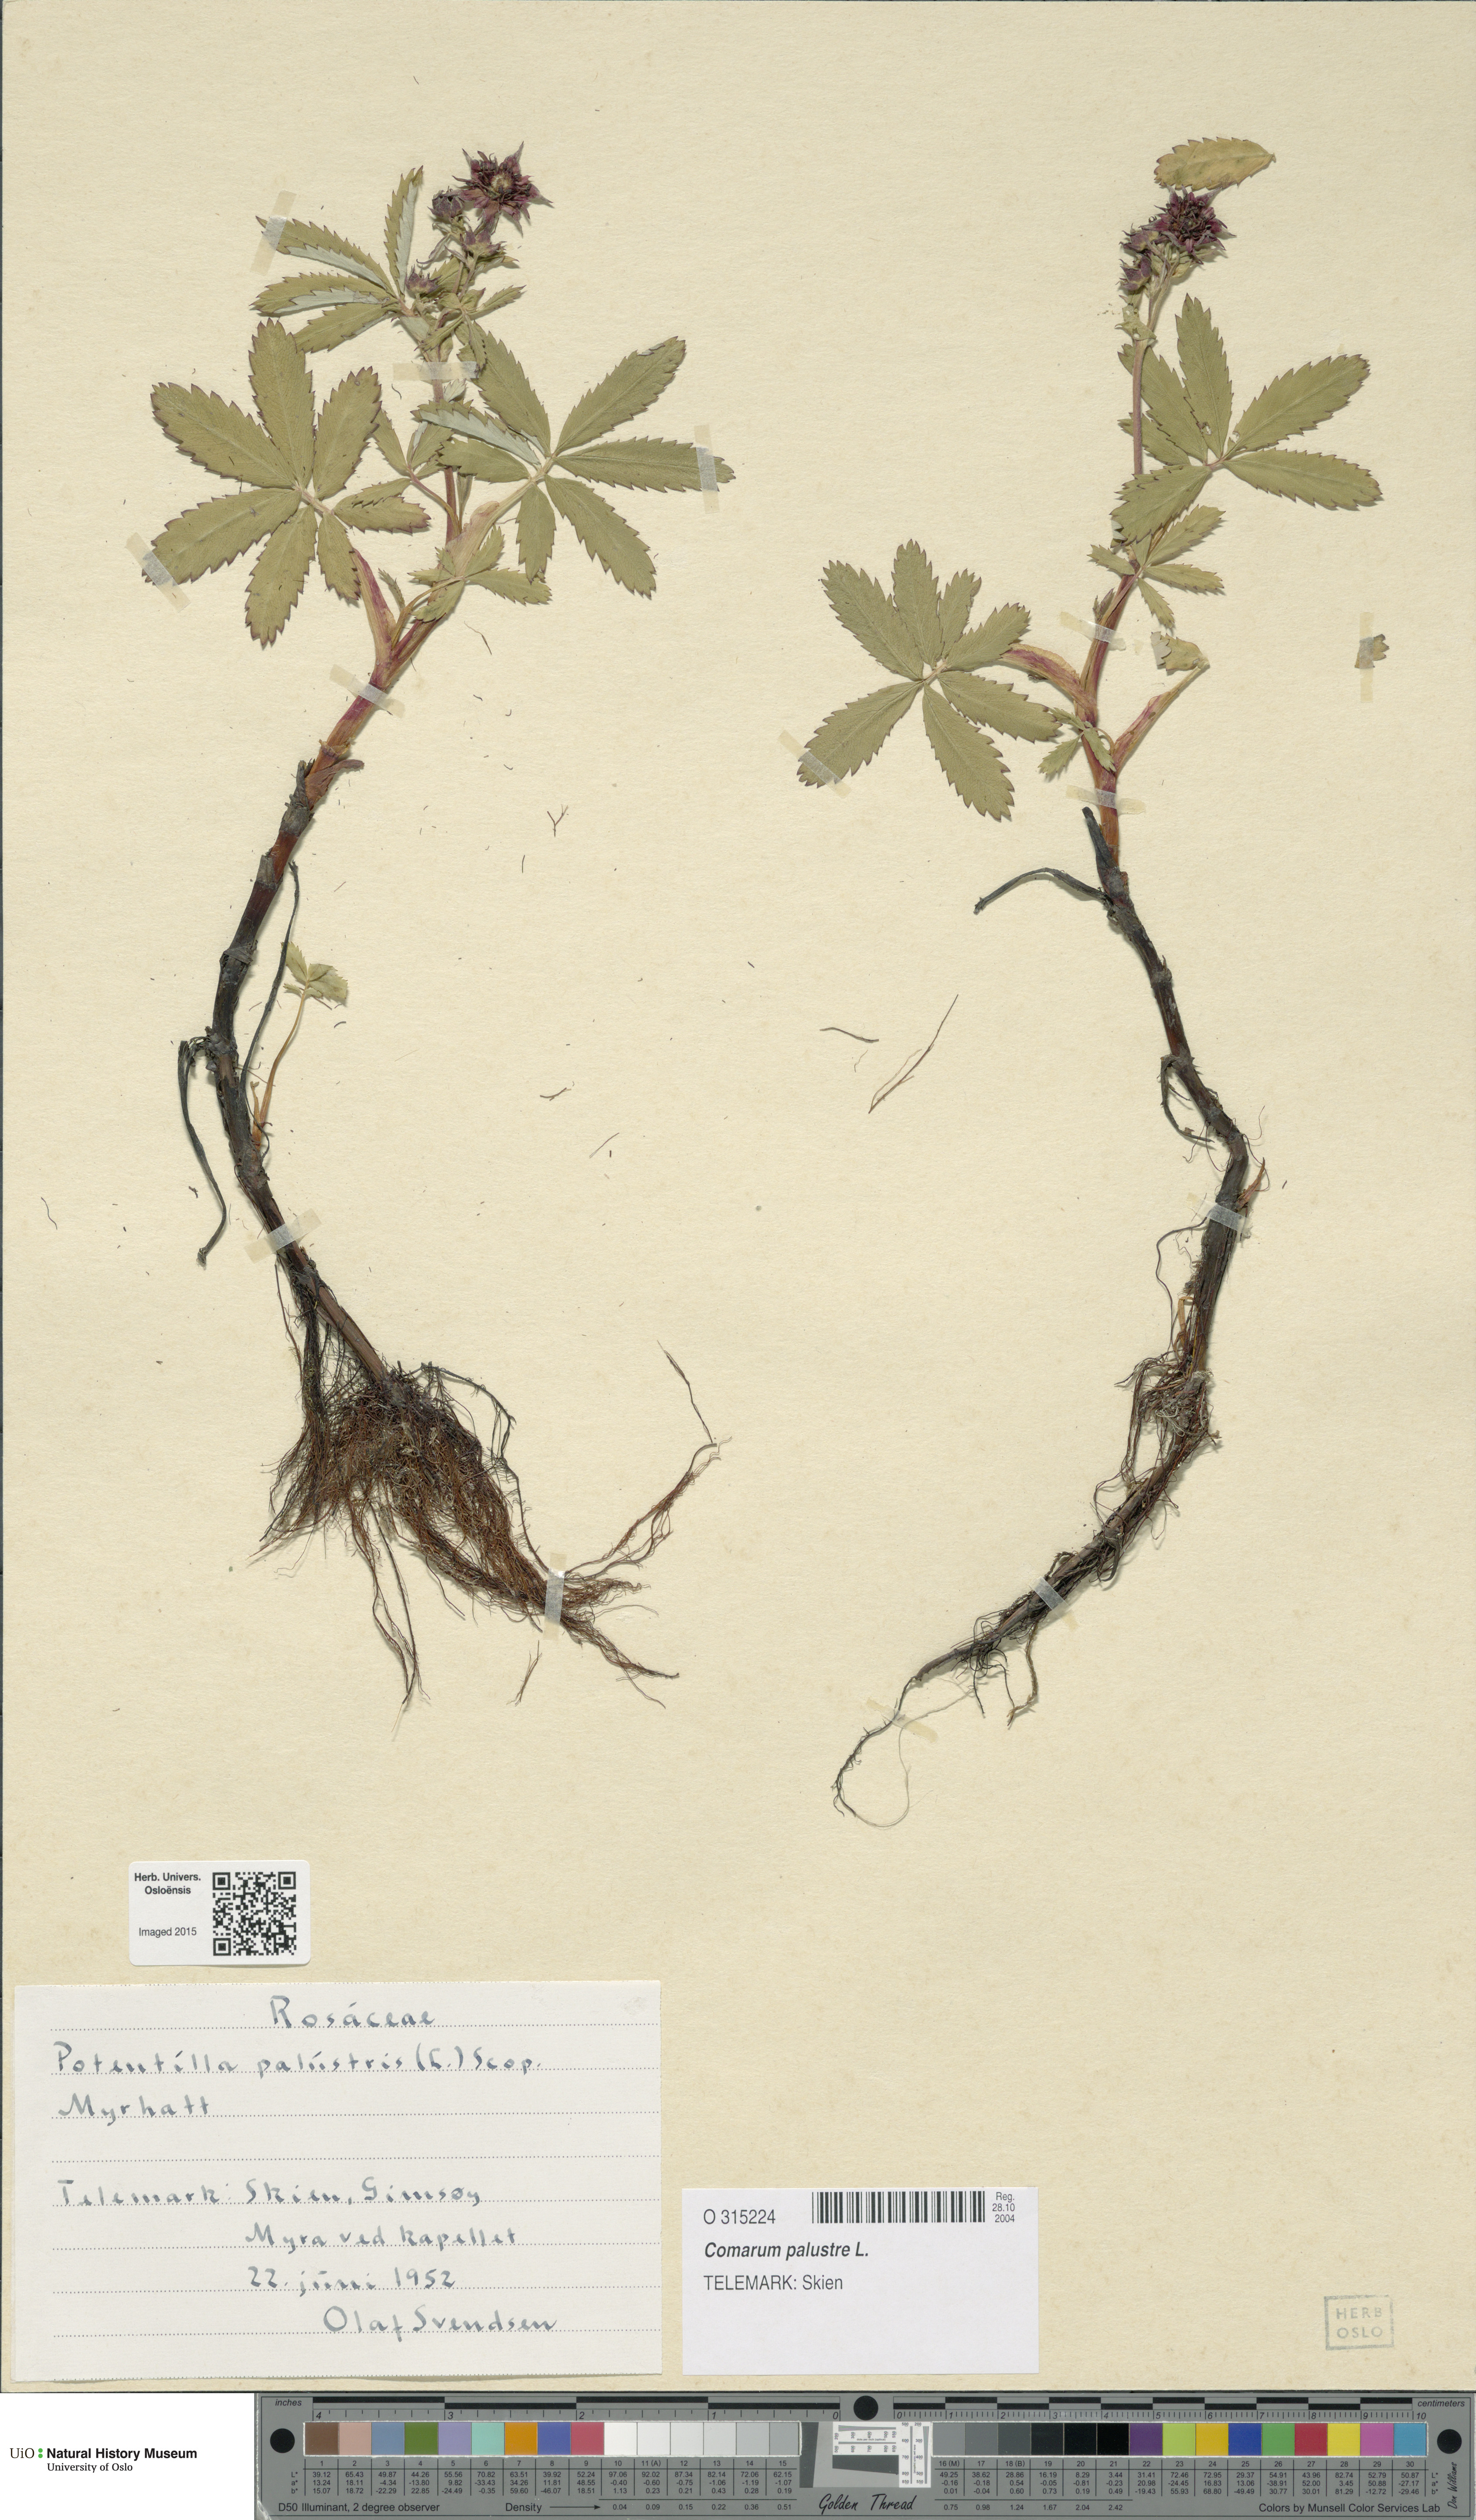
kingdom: Plantae
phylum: Tracheophyta
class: Magnoliopsida
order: Rosales
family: Rosaceae
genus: Comarum
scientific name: Comarum palustre
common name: Marsh cinquefoil
